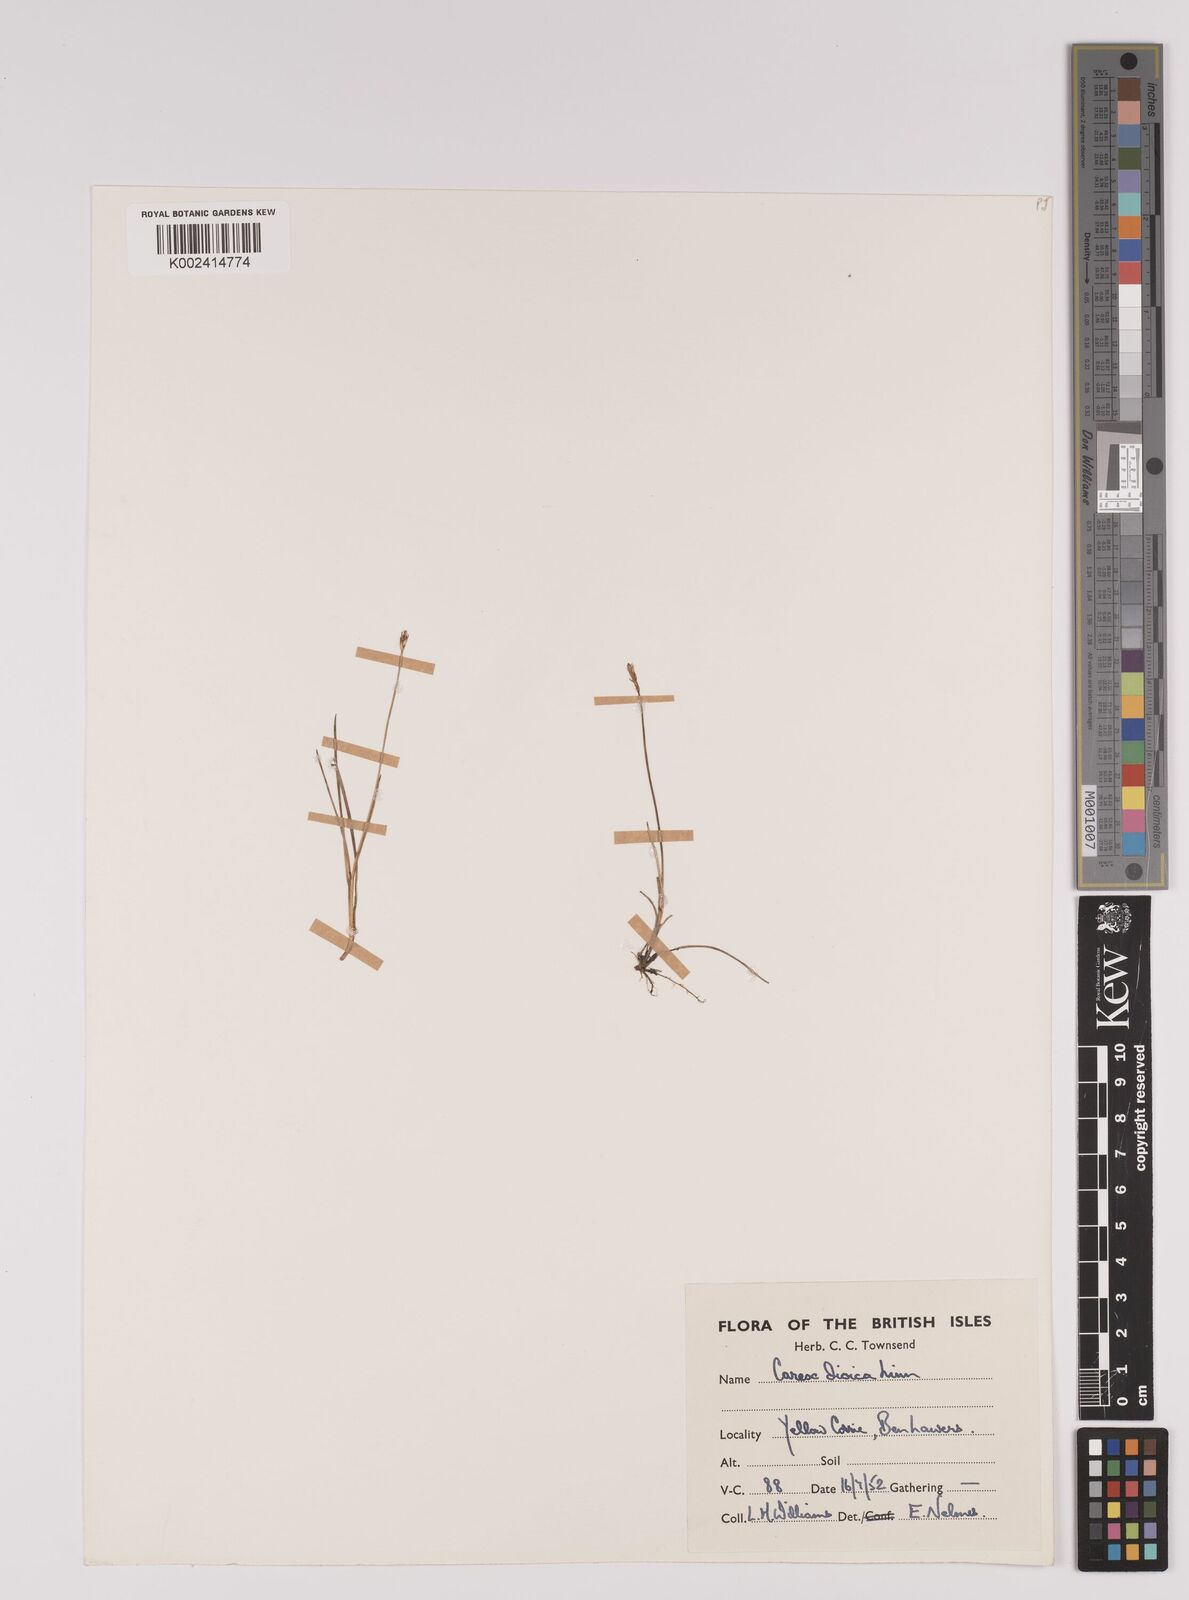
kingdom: Plantae
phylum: Tracheophyta
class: Liliopsida
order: Poales
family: Cyperaceae
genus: Carex
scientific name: Carex dioica
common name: Dioecious sedge
